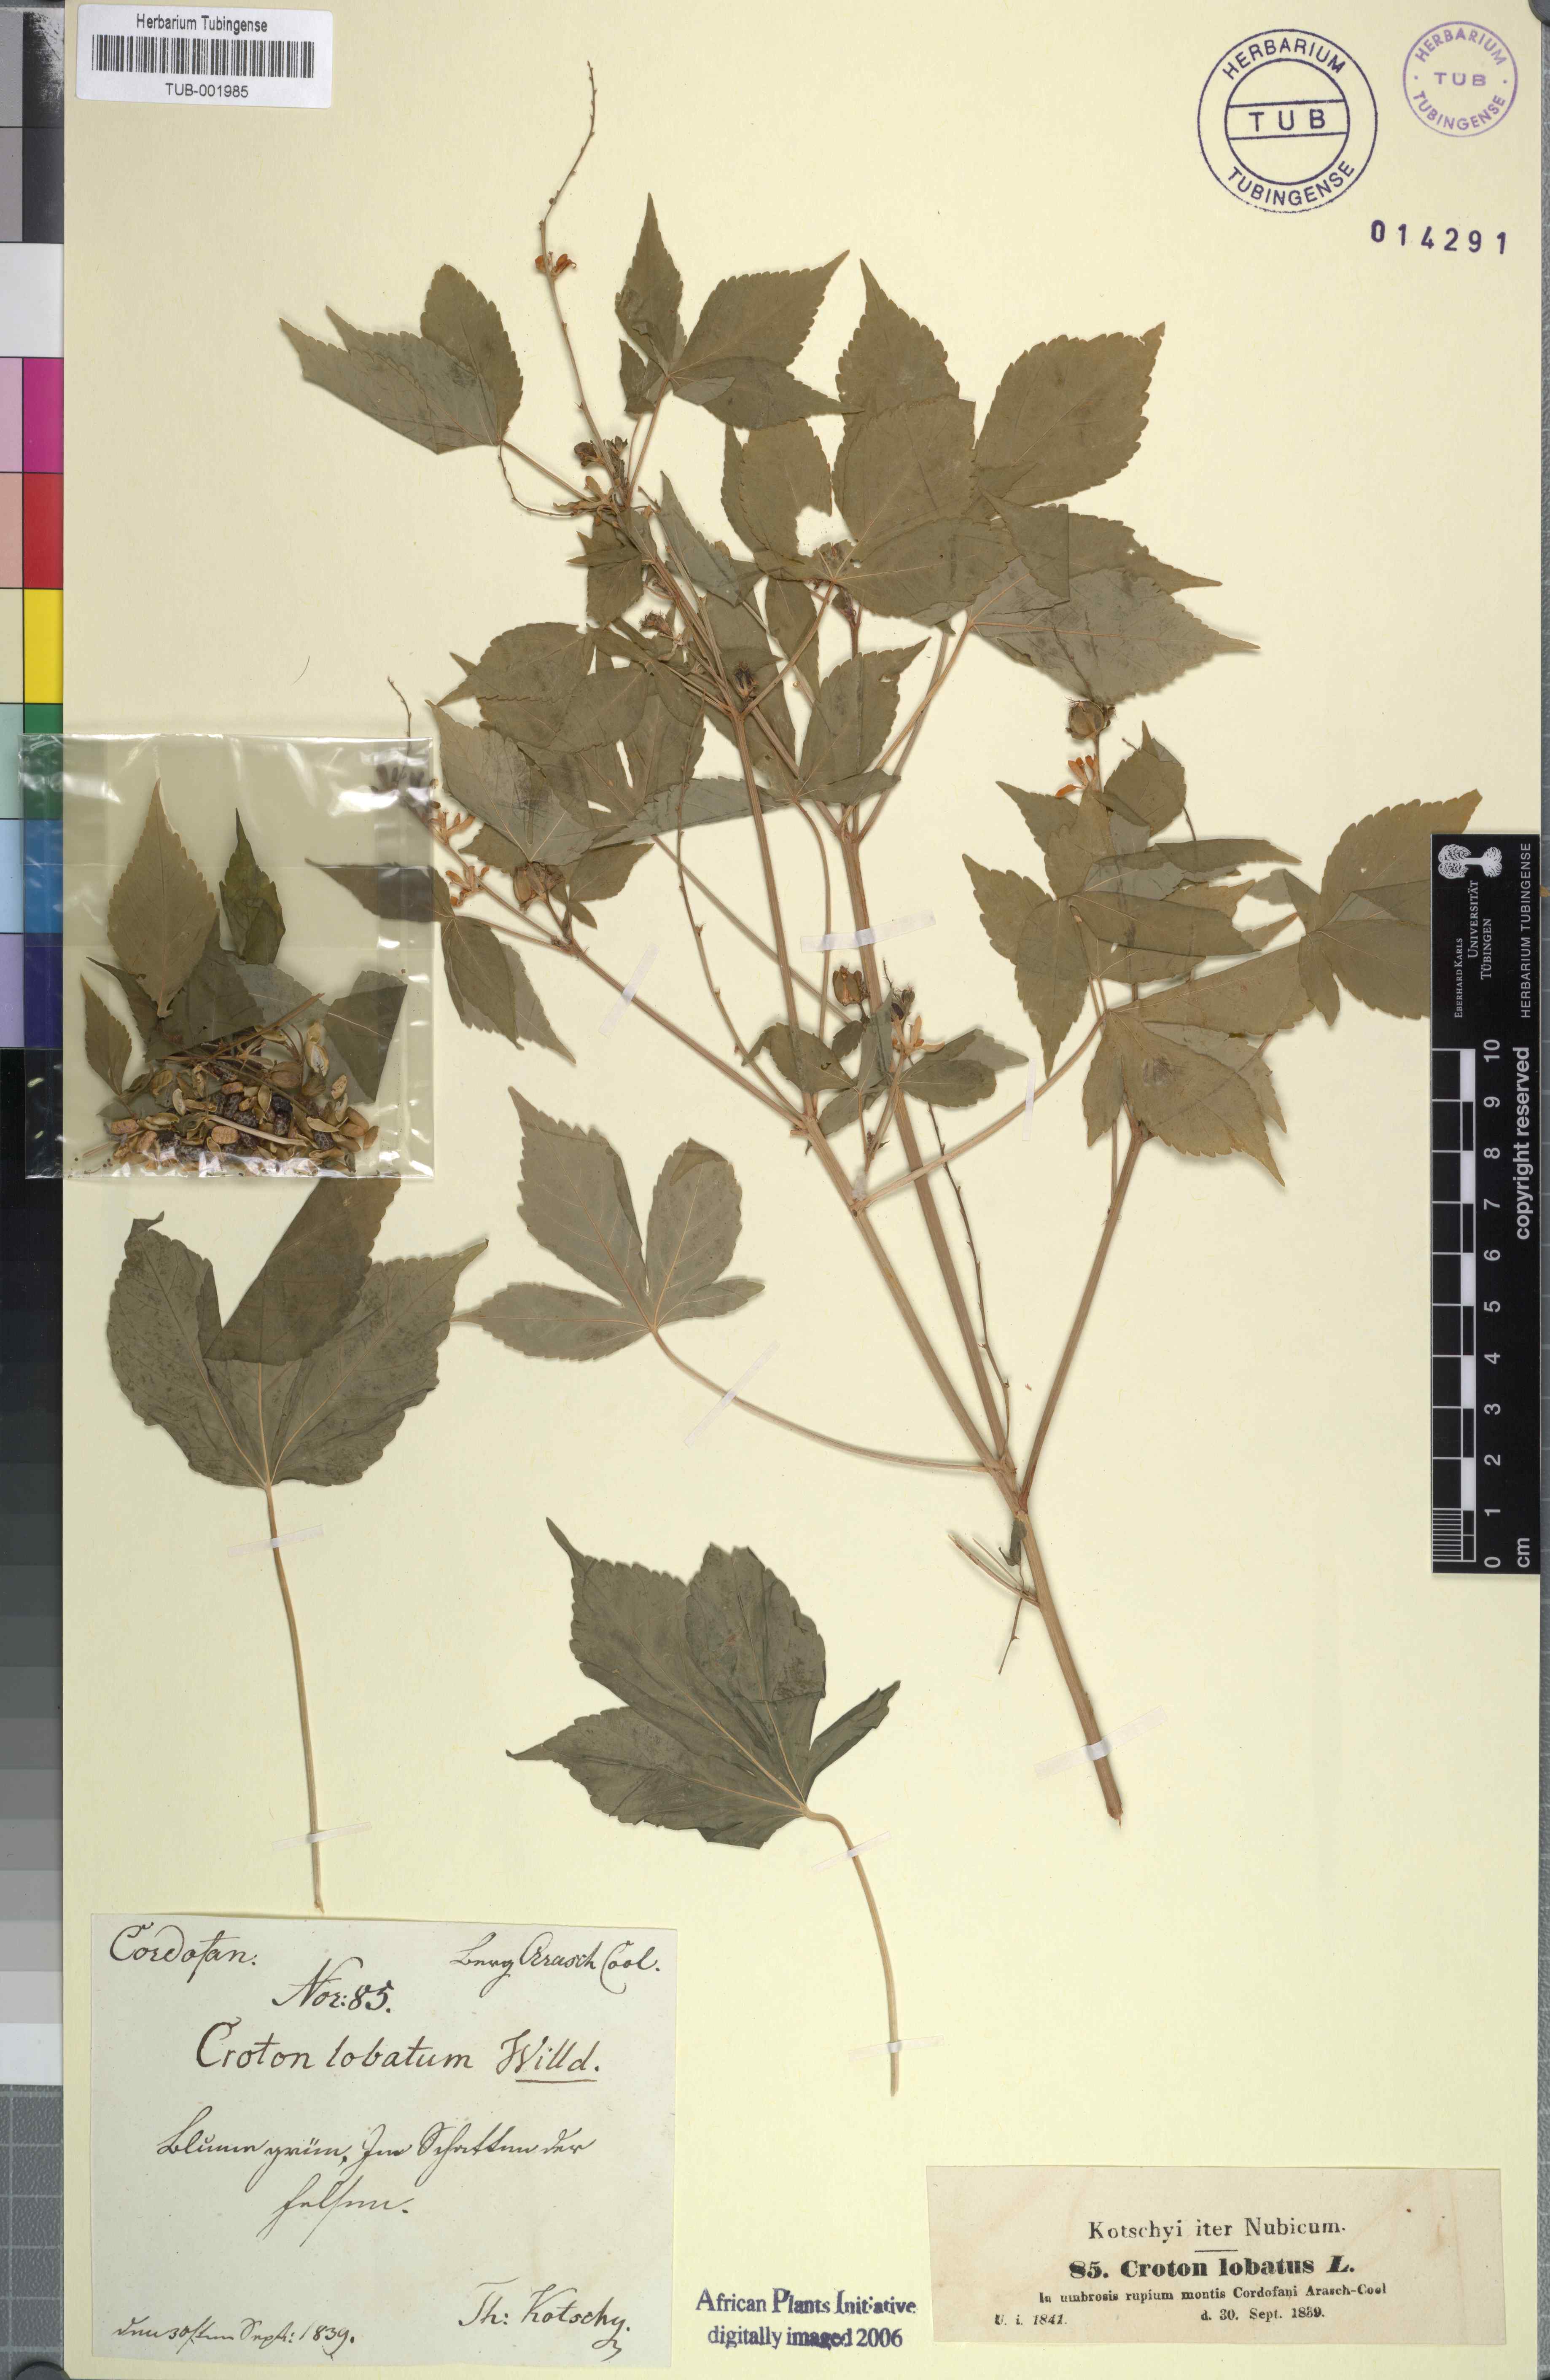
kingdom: Plantae
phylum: Tracheophyta
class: Magnoliopsida
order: Malpighiales
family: Euphorbiaceae
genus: Astraea
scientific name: Astraea lobata
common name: Lobed croton
